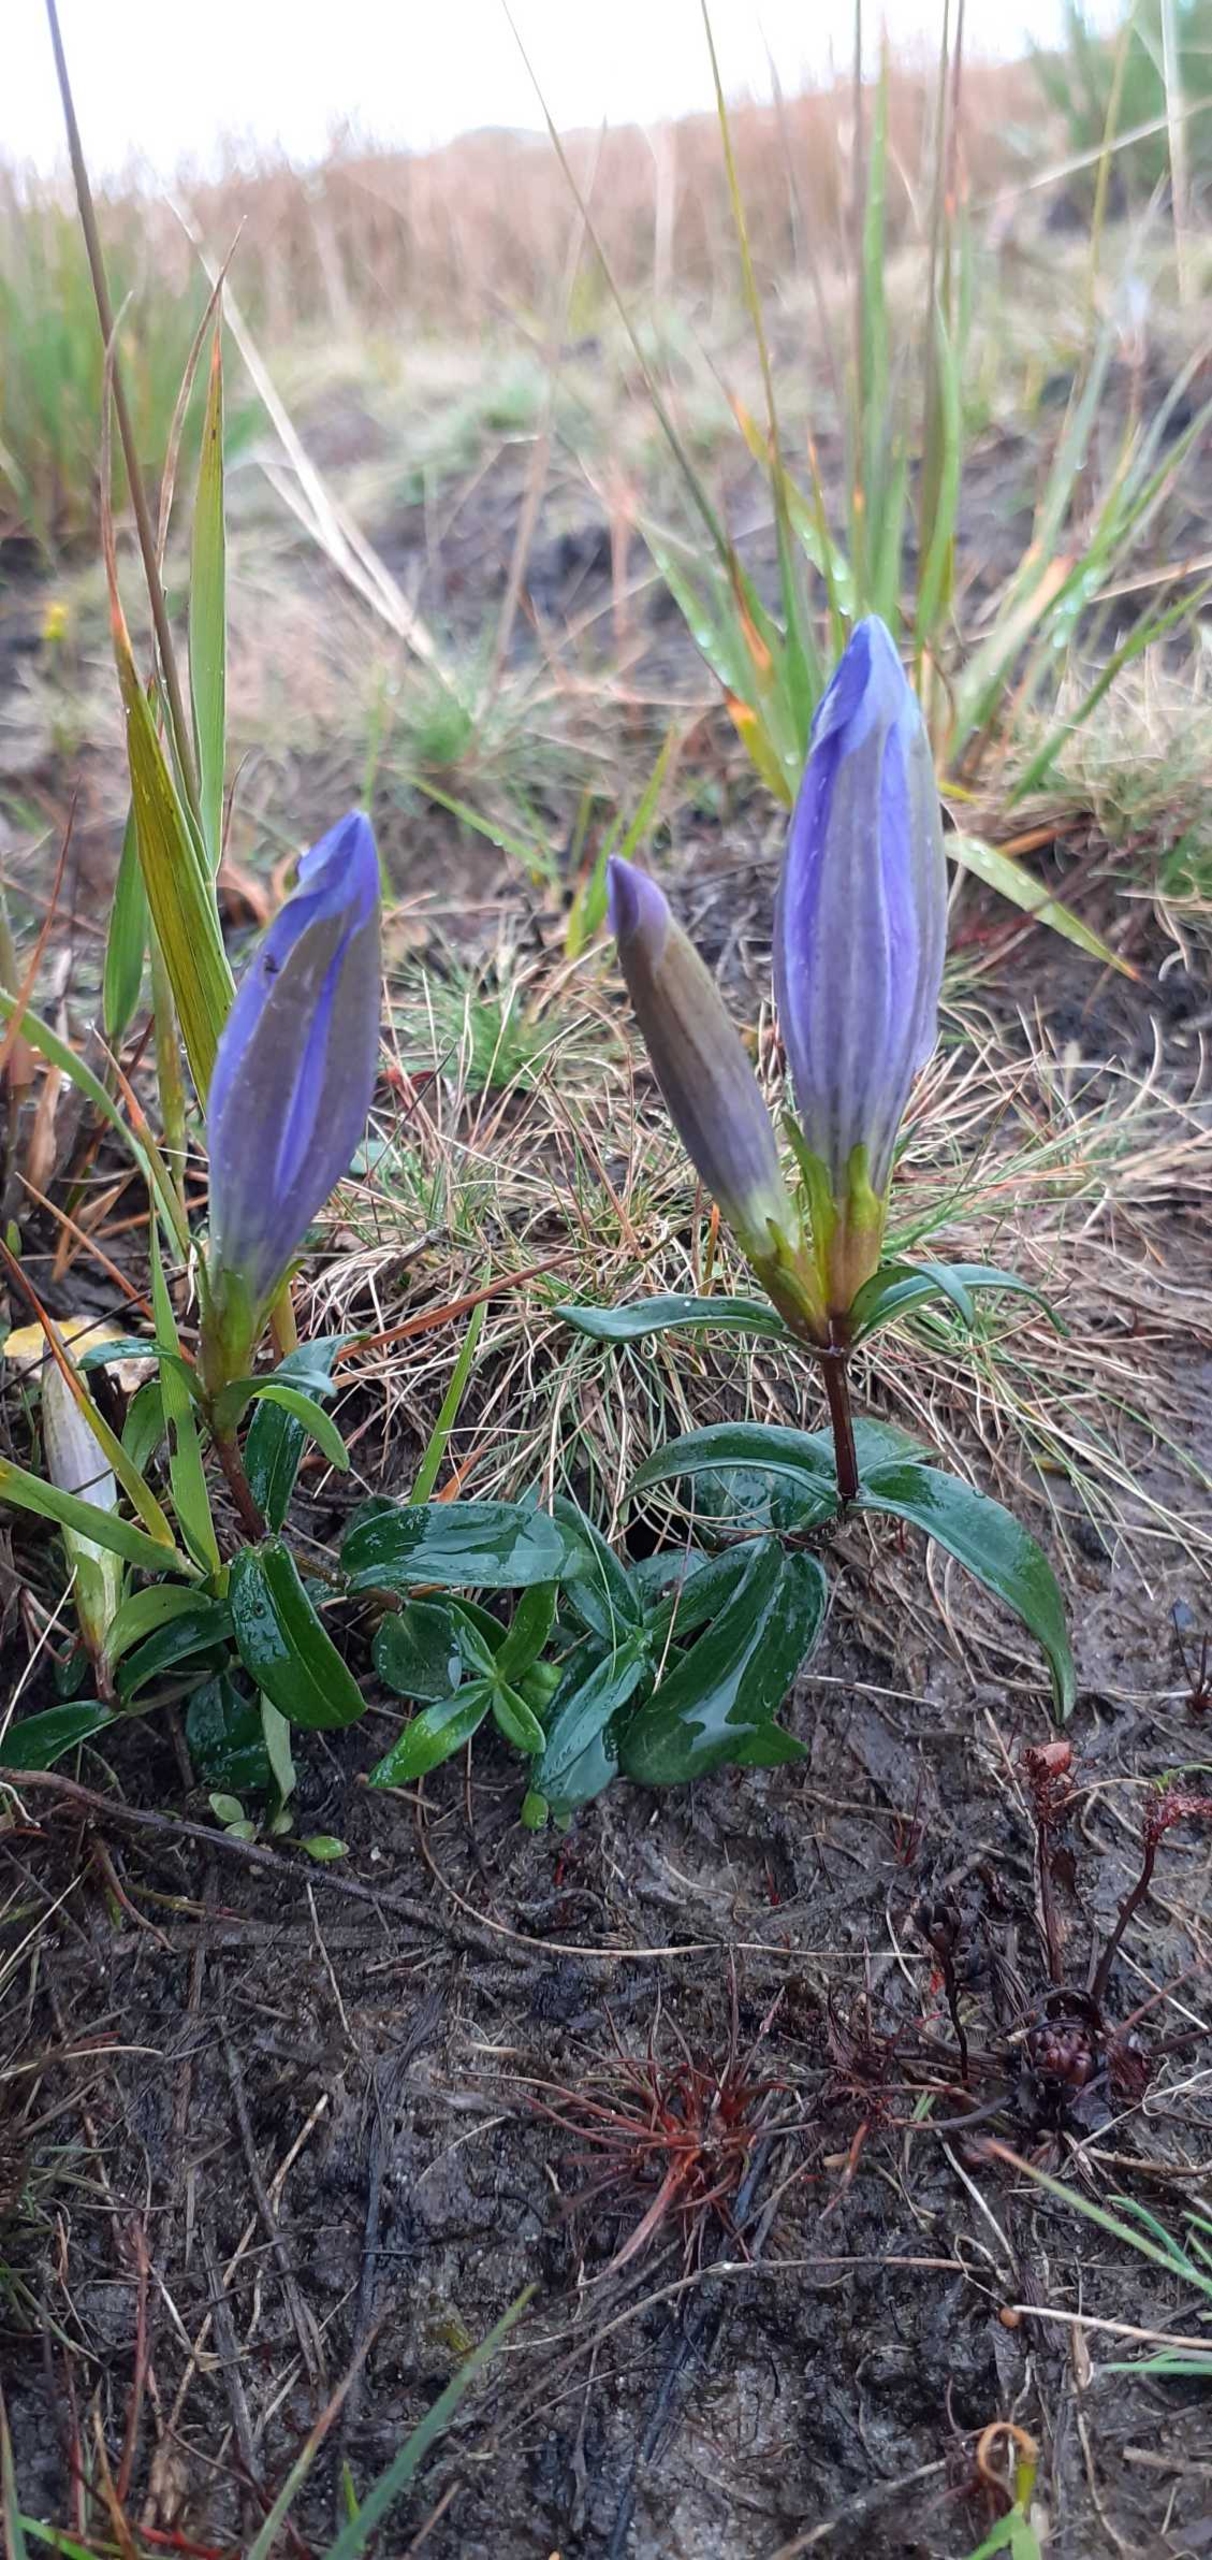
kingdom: Plantae
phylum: Tracheophyta
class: Magnoliopsida
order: Gentianales
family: Gentianaceae
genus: Gentiana
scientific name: Gentiana pneumonanthe
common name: Klokke-ensian
